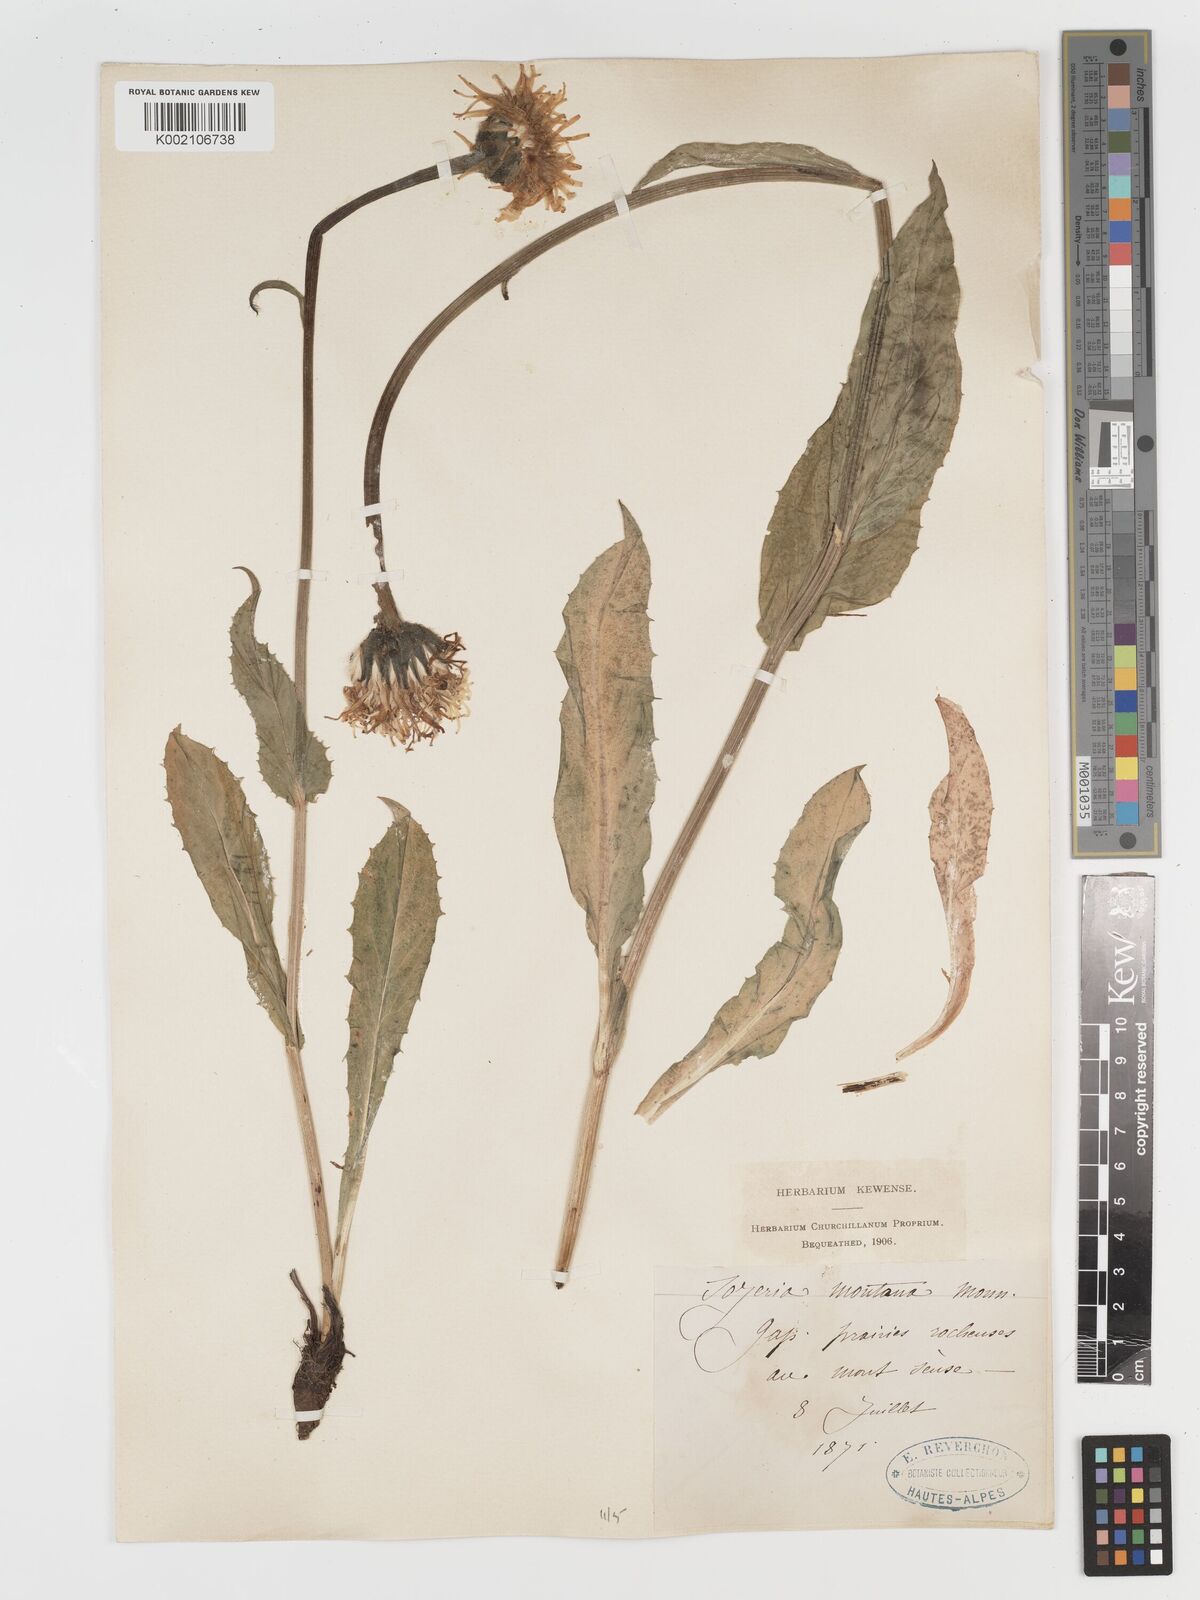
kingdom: Plantae
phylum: Tracheophyta
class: Magnoliopsida
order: Asterales
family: Asteraceae
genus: Crepis
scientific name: Crepis pontana
